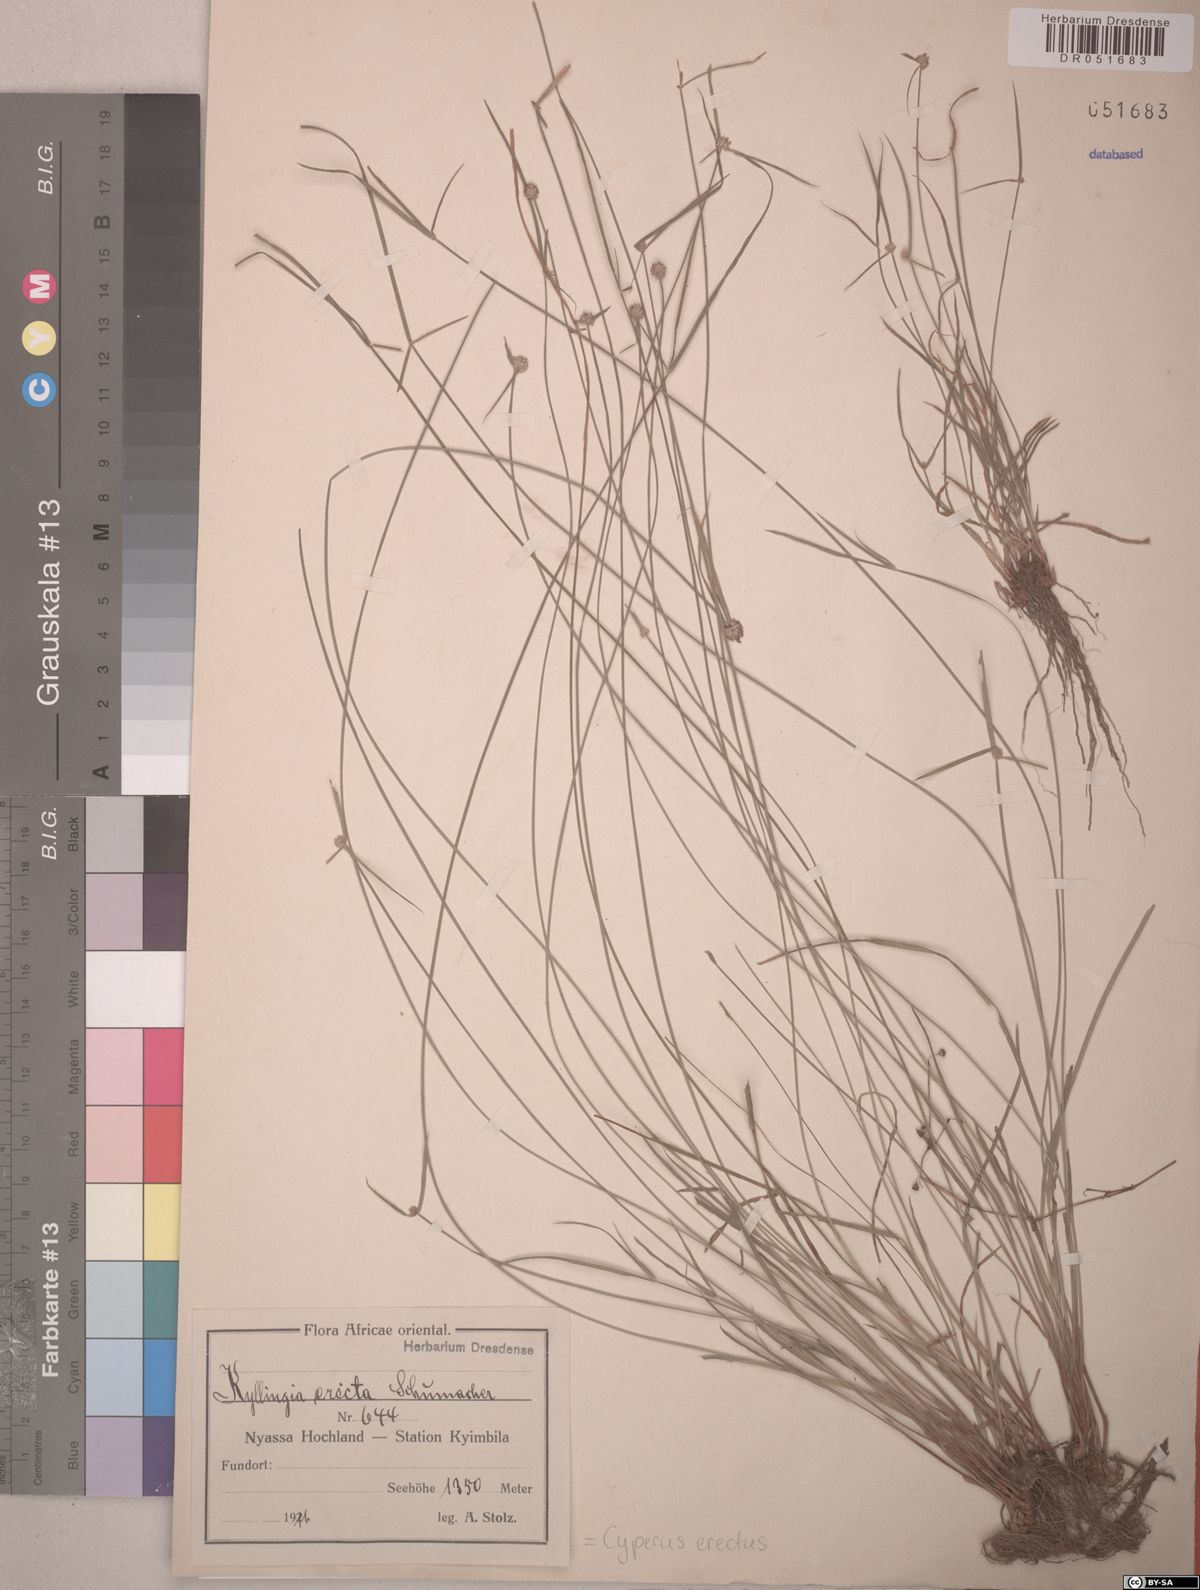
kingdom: Plantae
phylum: Tracheophyta
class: Liliopsida
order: Poales
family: Cyperaceae
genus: Cyperus
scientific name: Cyperus erectus
